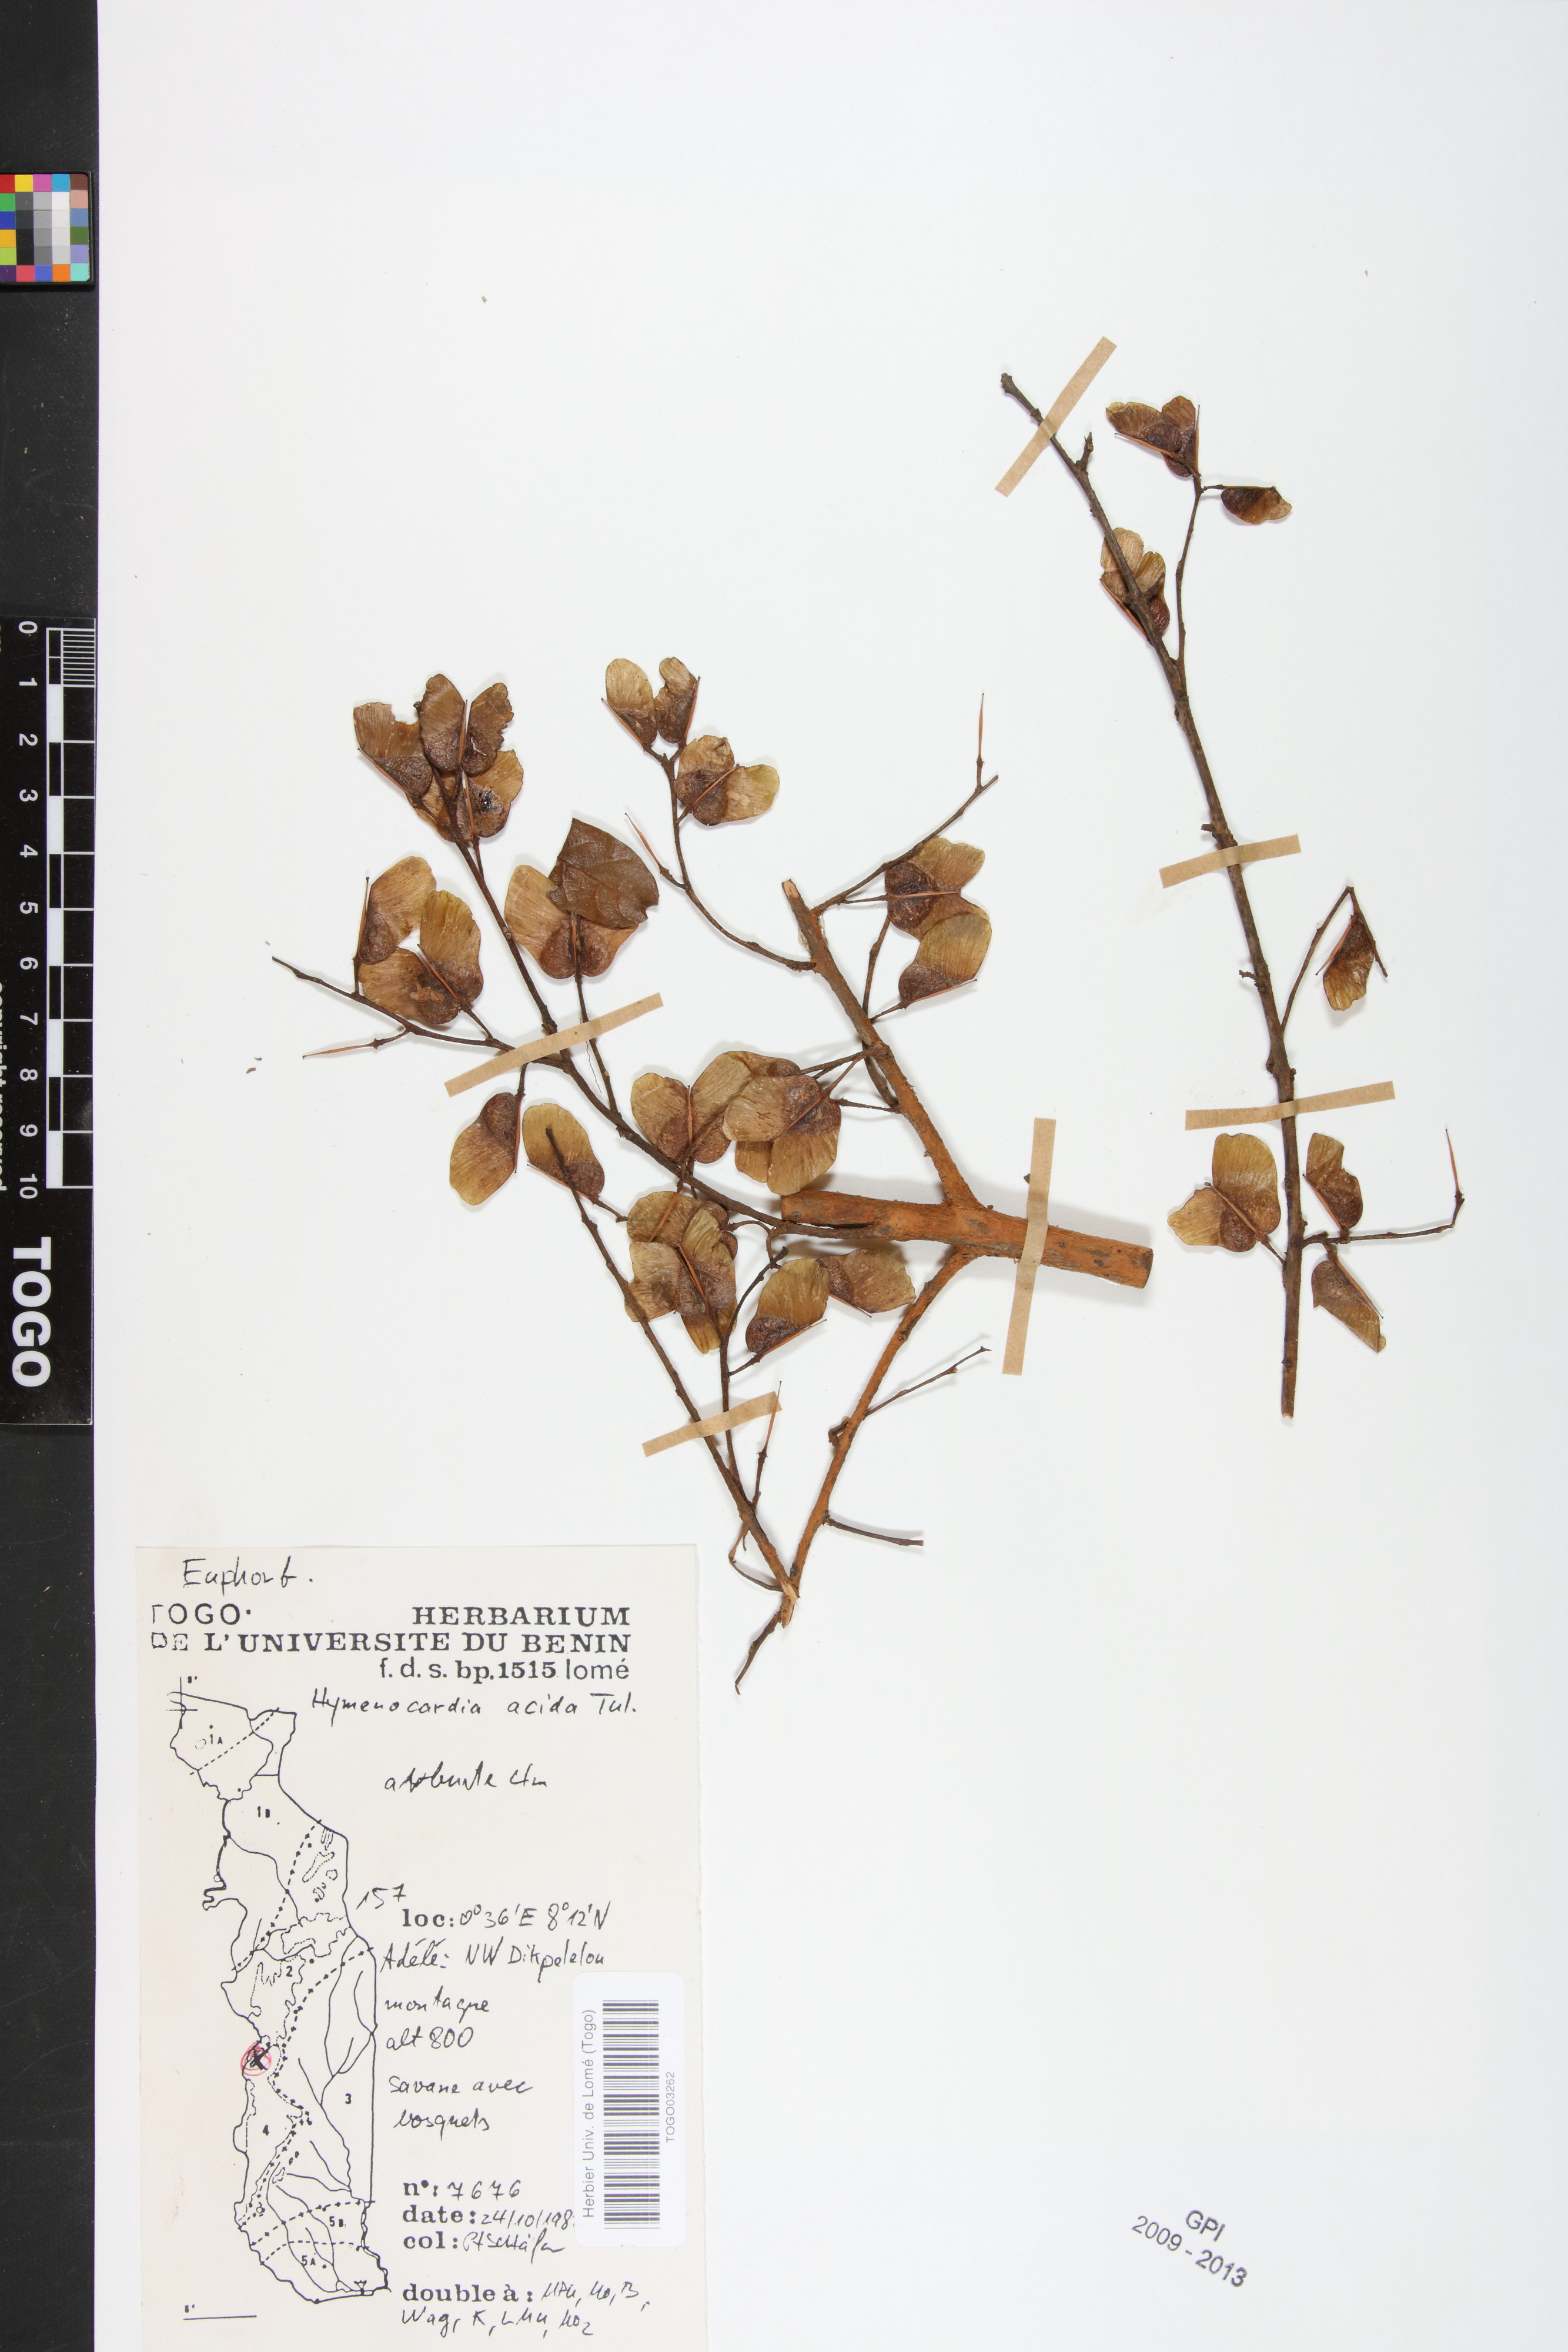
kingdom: Plantae
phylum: Tracheophyta
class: Magnoliopsida
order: Malpighiales
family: Phyllanthaceae
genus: Hymenocardia
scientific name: Hymenocardia acida
